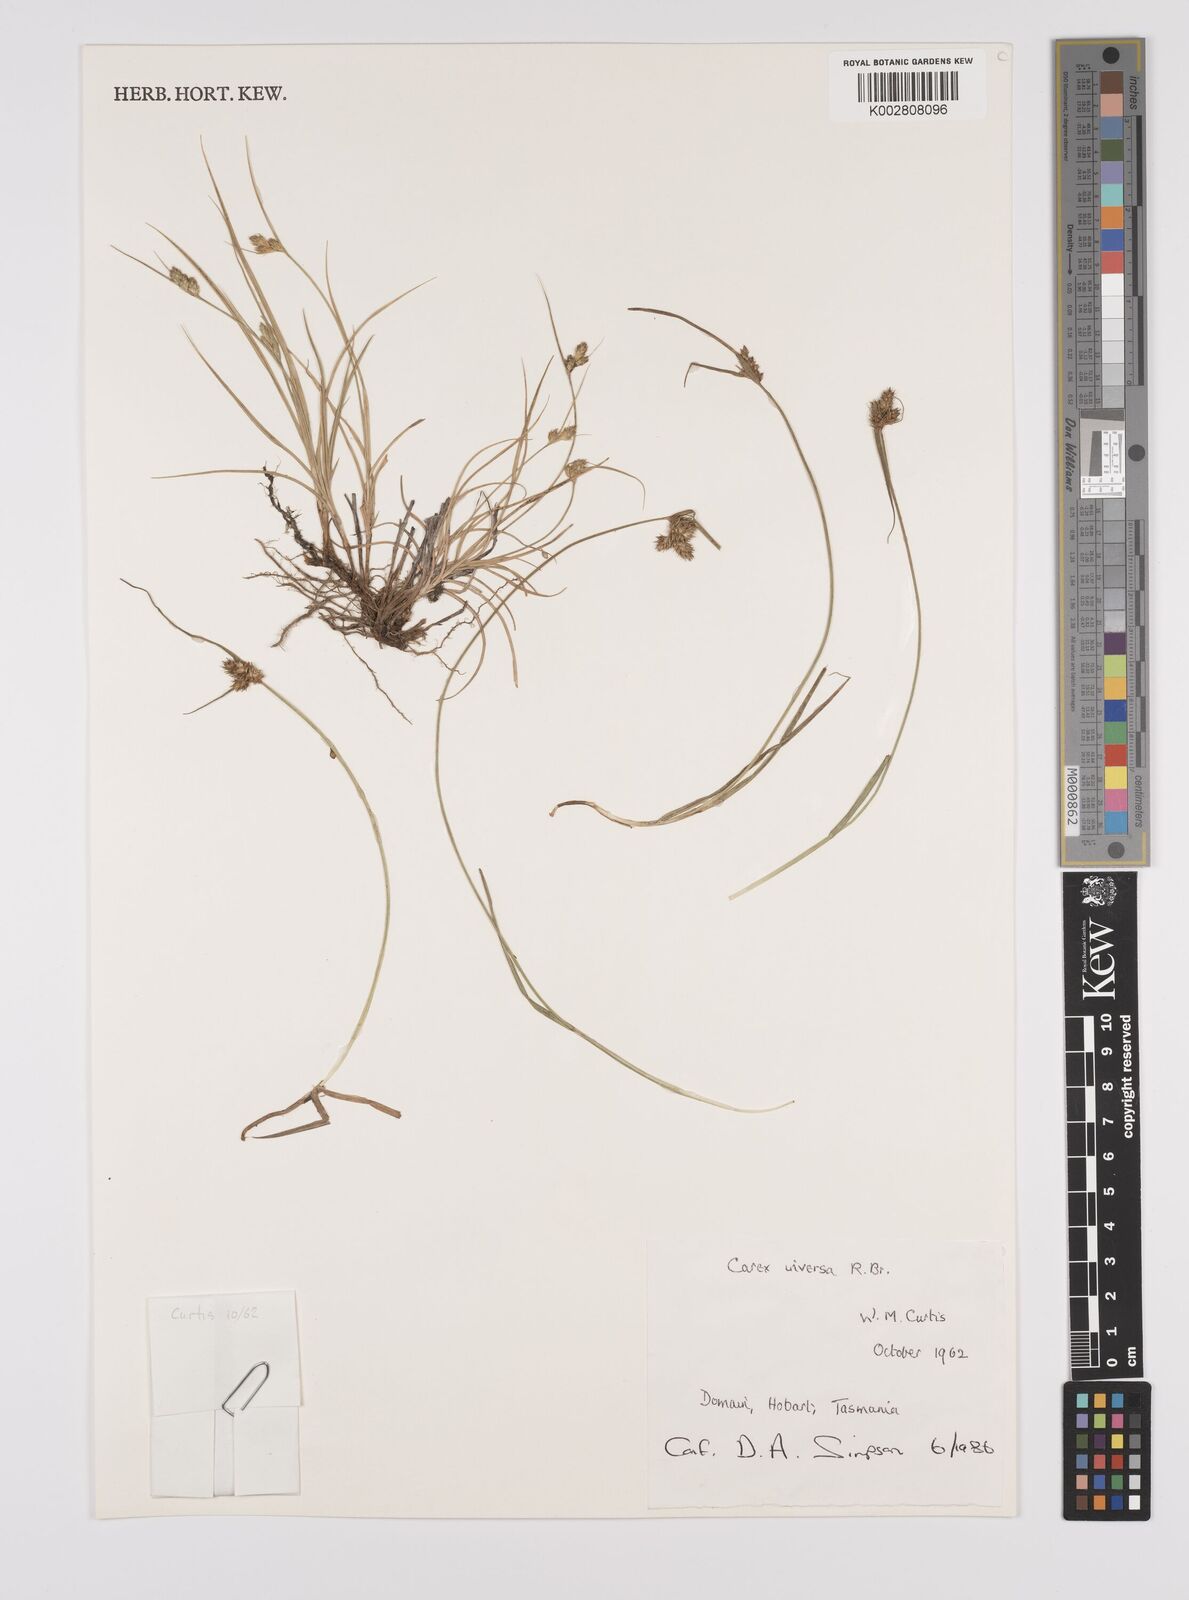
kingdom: Plantae
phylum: Tracheophyta
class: Liliopsida
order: Poales
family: Cyperaceae
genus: Carex
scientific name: Carex inversa
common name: Knob sedge
